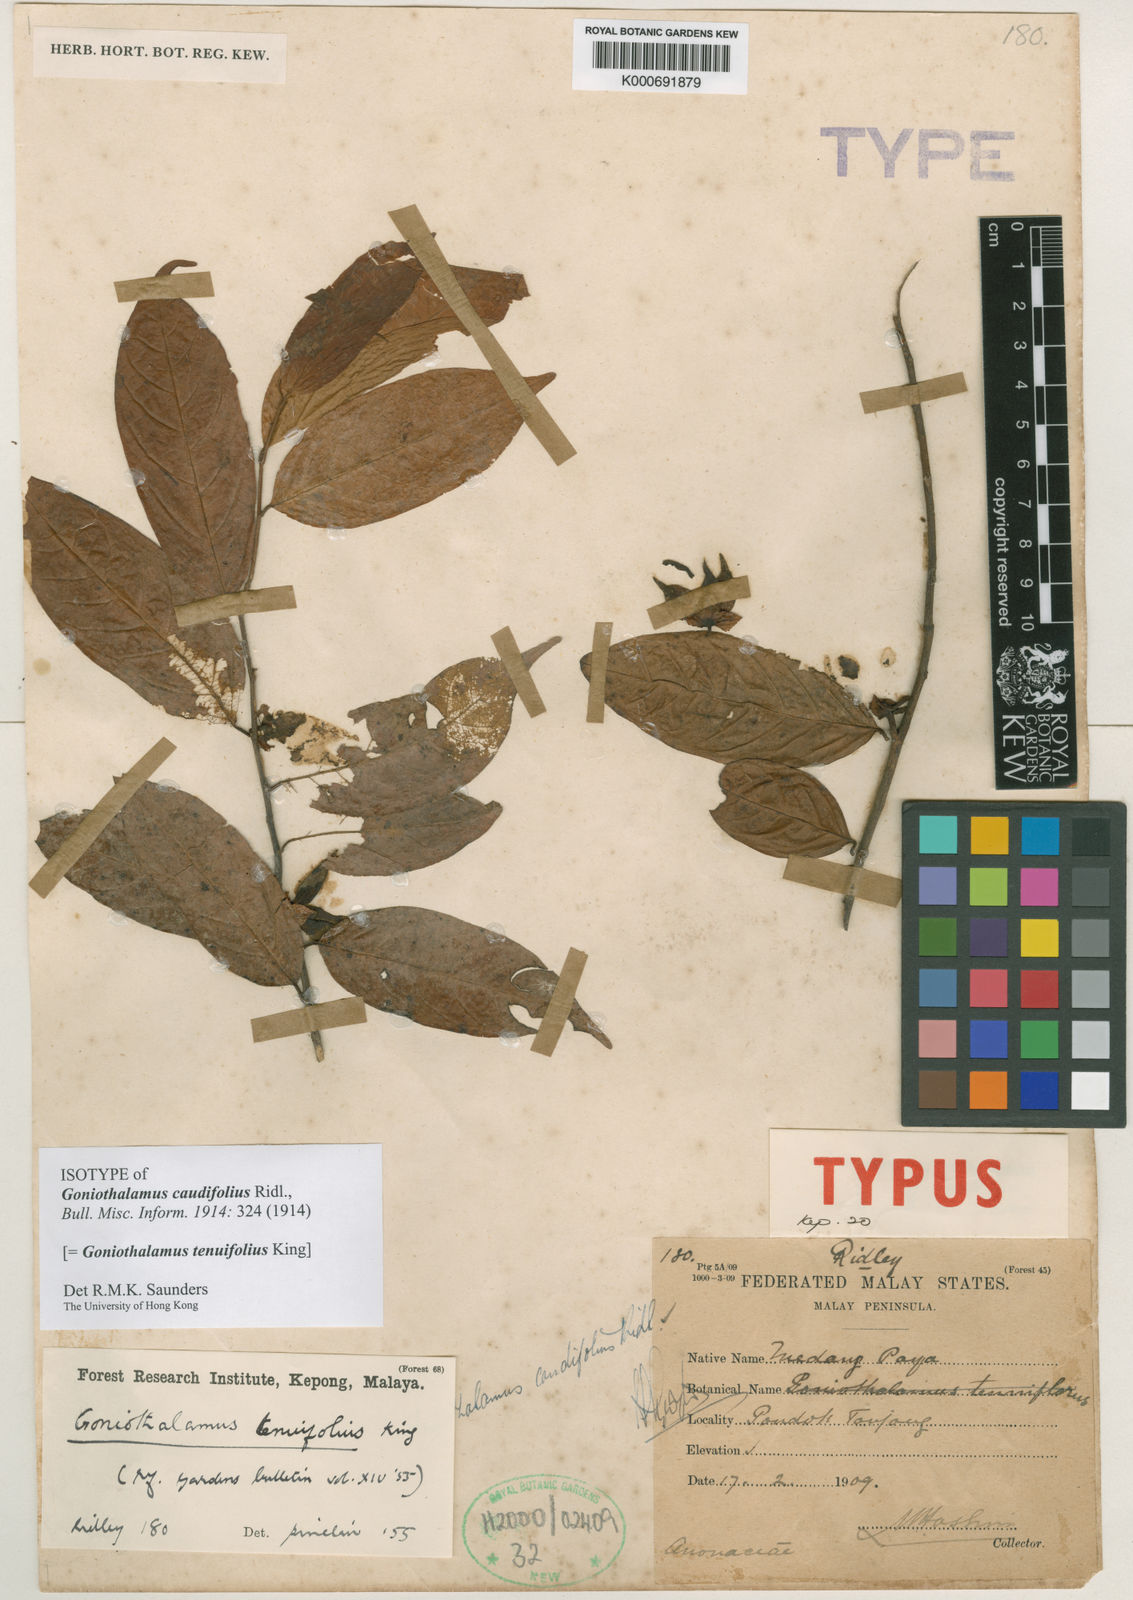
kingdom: Plantae
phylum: Tracheophyta
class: Magnoliopsida
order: Magnoliales
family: Annonaceae
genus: Goniothalamus
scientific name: Goniothalamus tenuifolius
